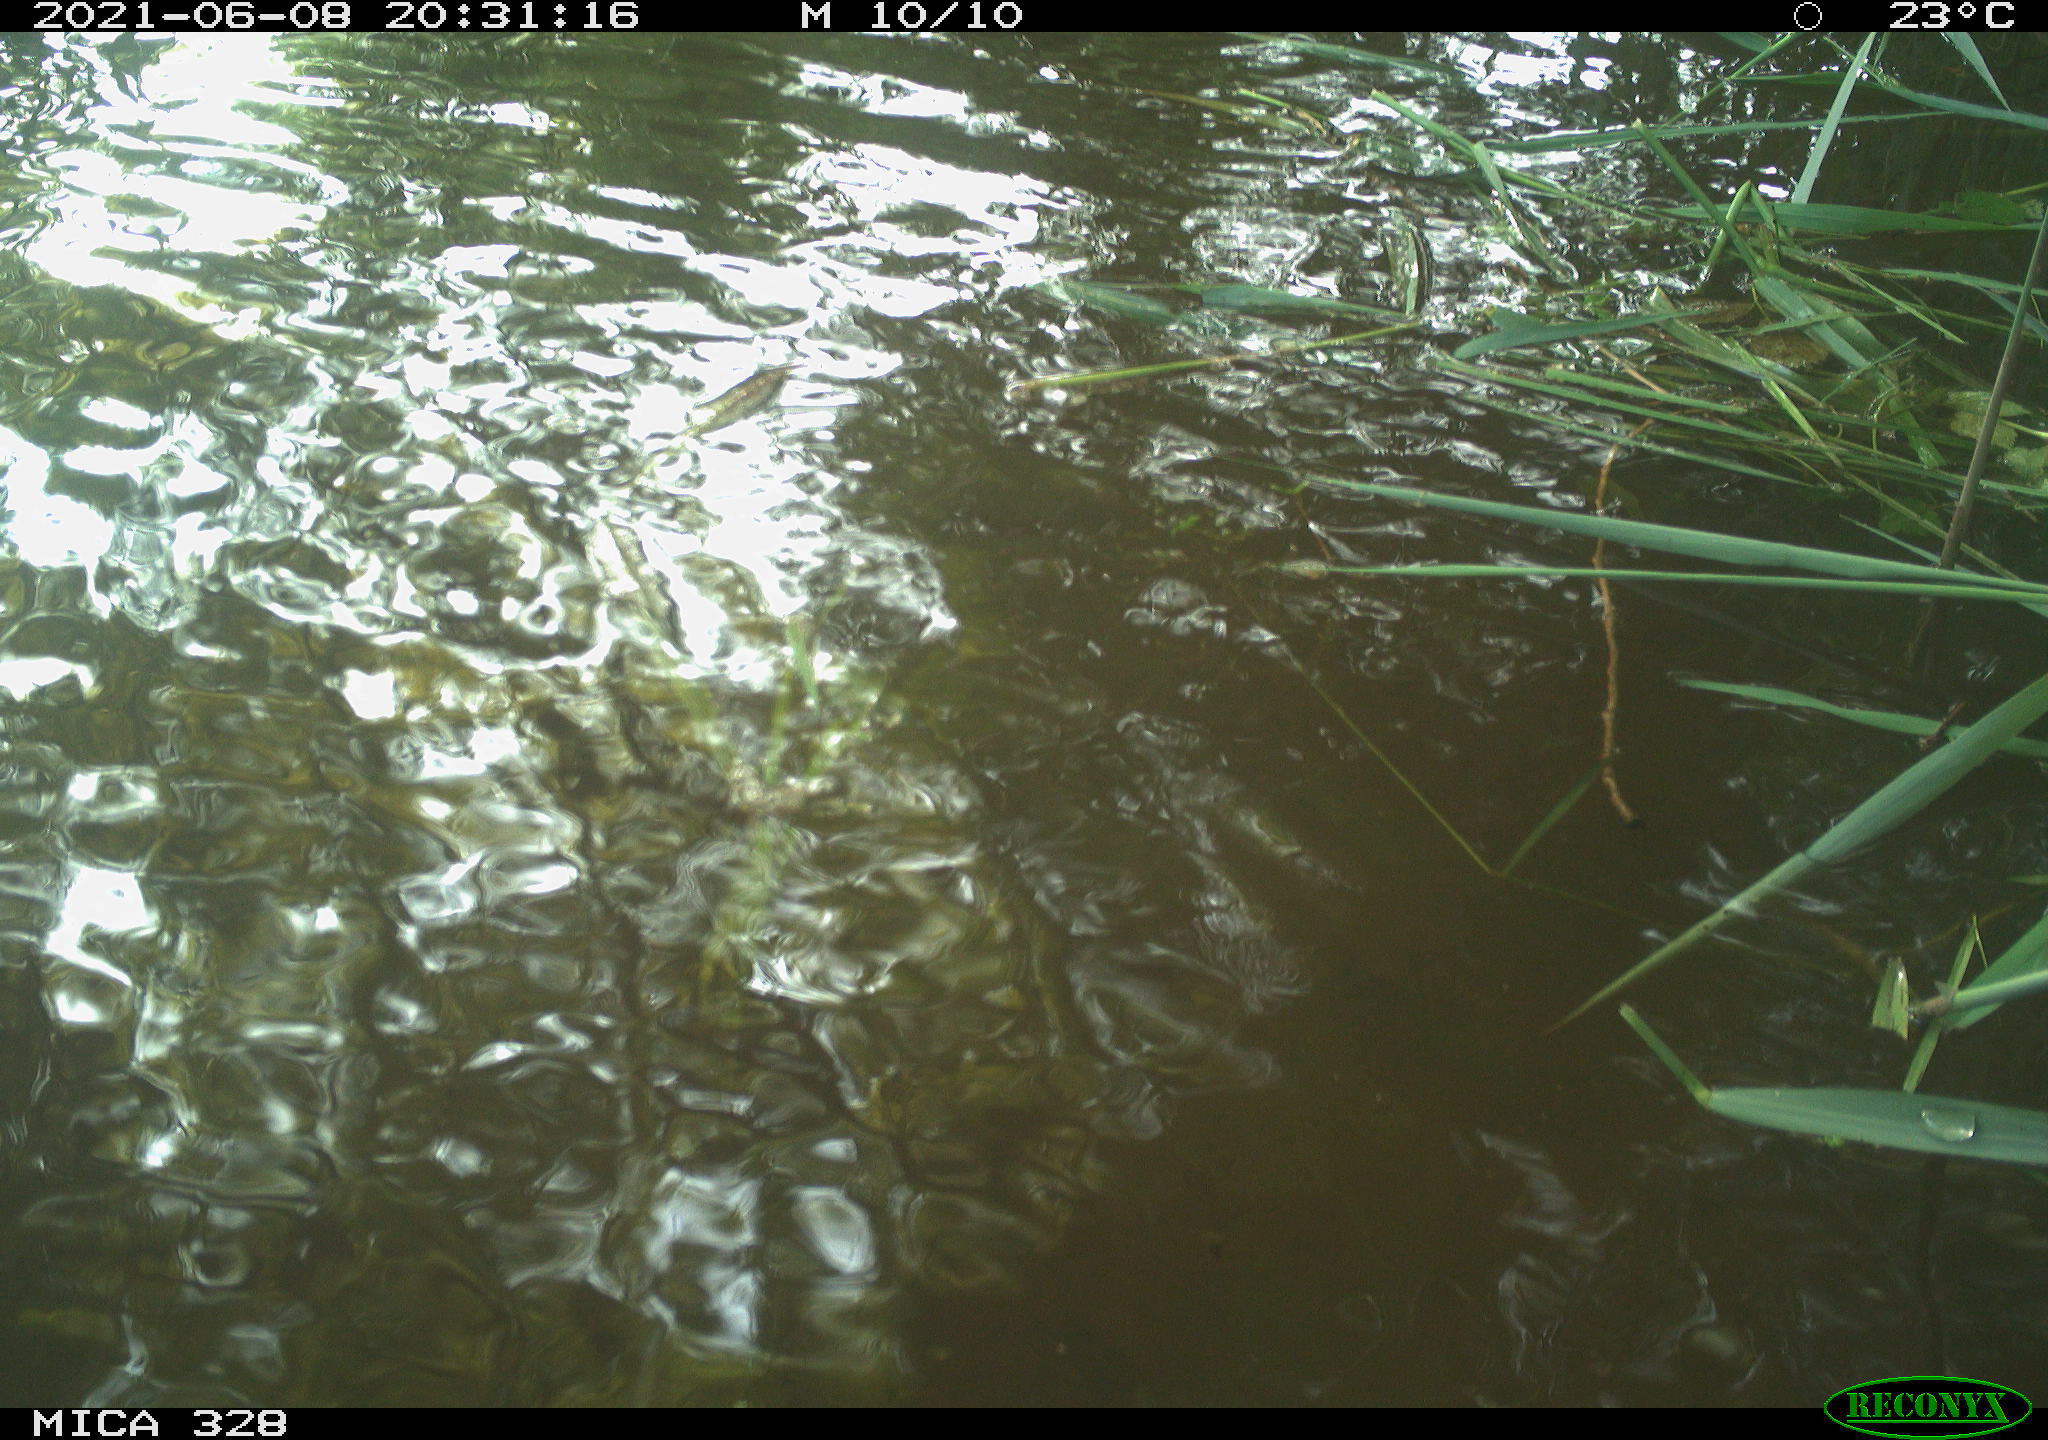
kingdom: Animalia
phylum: Chordata
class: Aves
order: Anseriformes
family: Anatidae
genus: Aix
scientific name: Aix galericulata
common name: Mandarin duck
